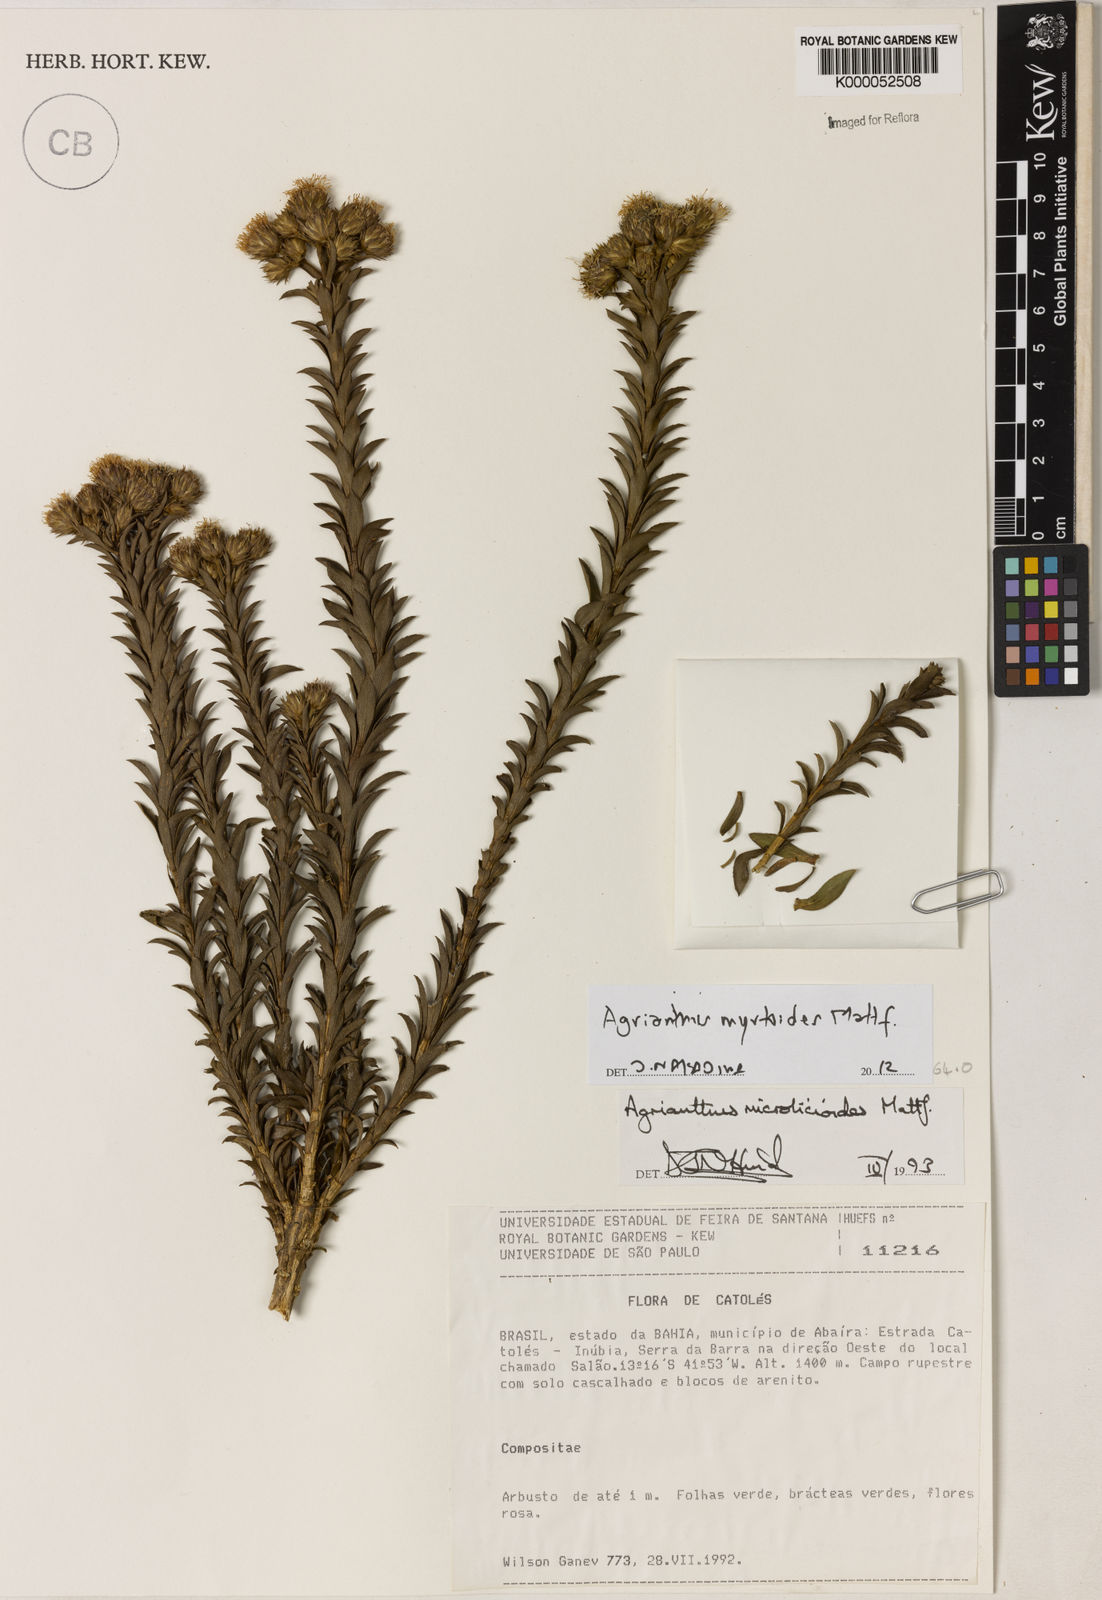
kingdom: Plantae
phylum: Tracheophyta
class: Magnoliopsida
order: Asterales
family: Asteraceae
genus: Agrianthus
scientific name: Agrianthus microlicioides
